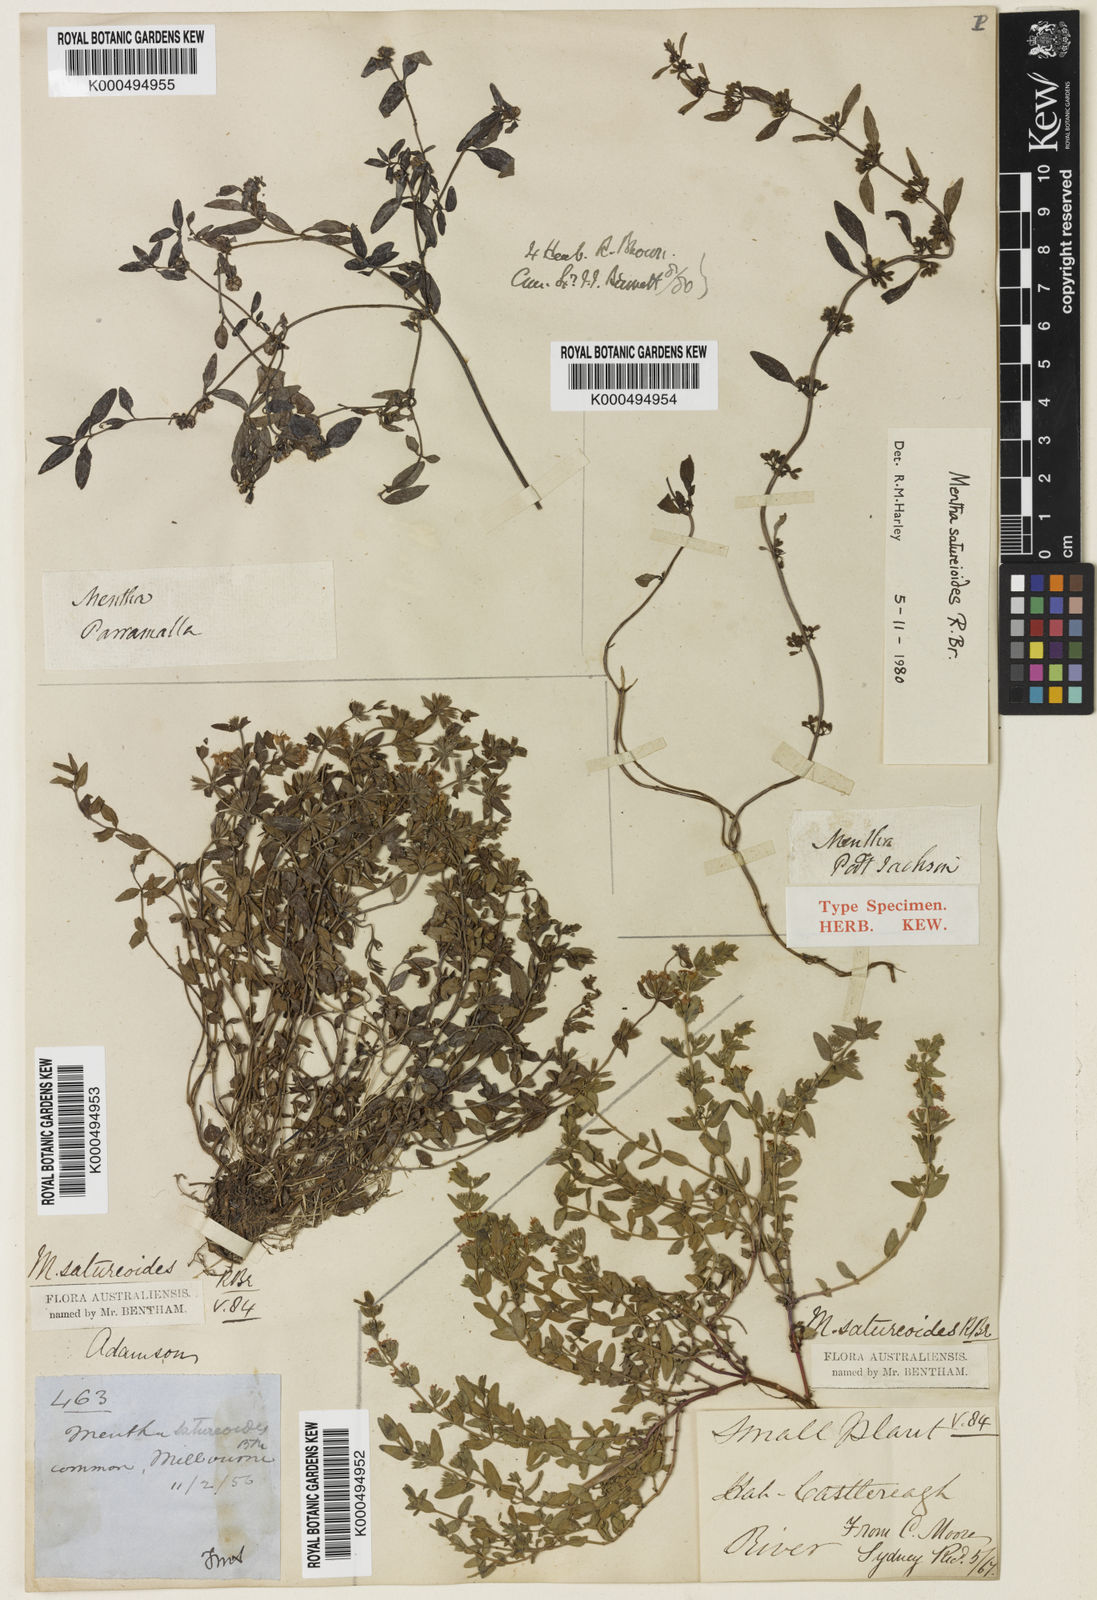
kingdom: Plantae
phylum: Tracheophyta
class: Magnoliopsida
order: Lamiales
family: Lamiaceae
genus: Mentha
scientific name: Mentha satureioides
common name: Brisbane pennyroyal
